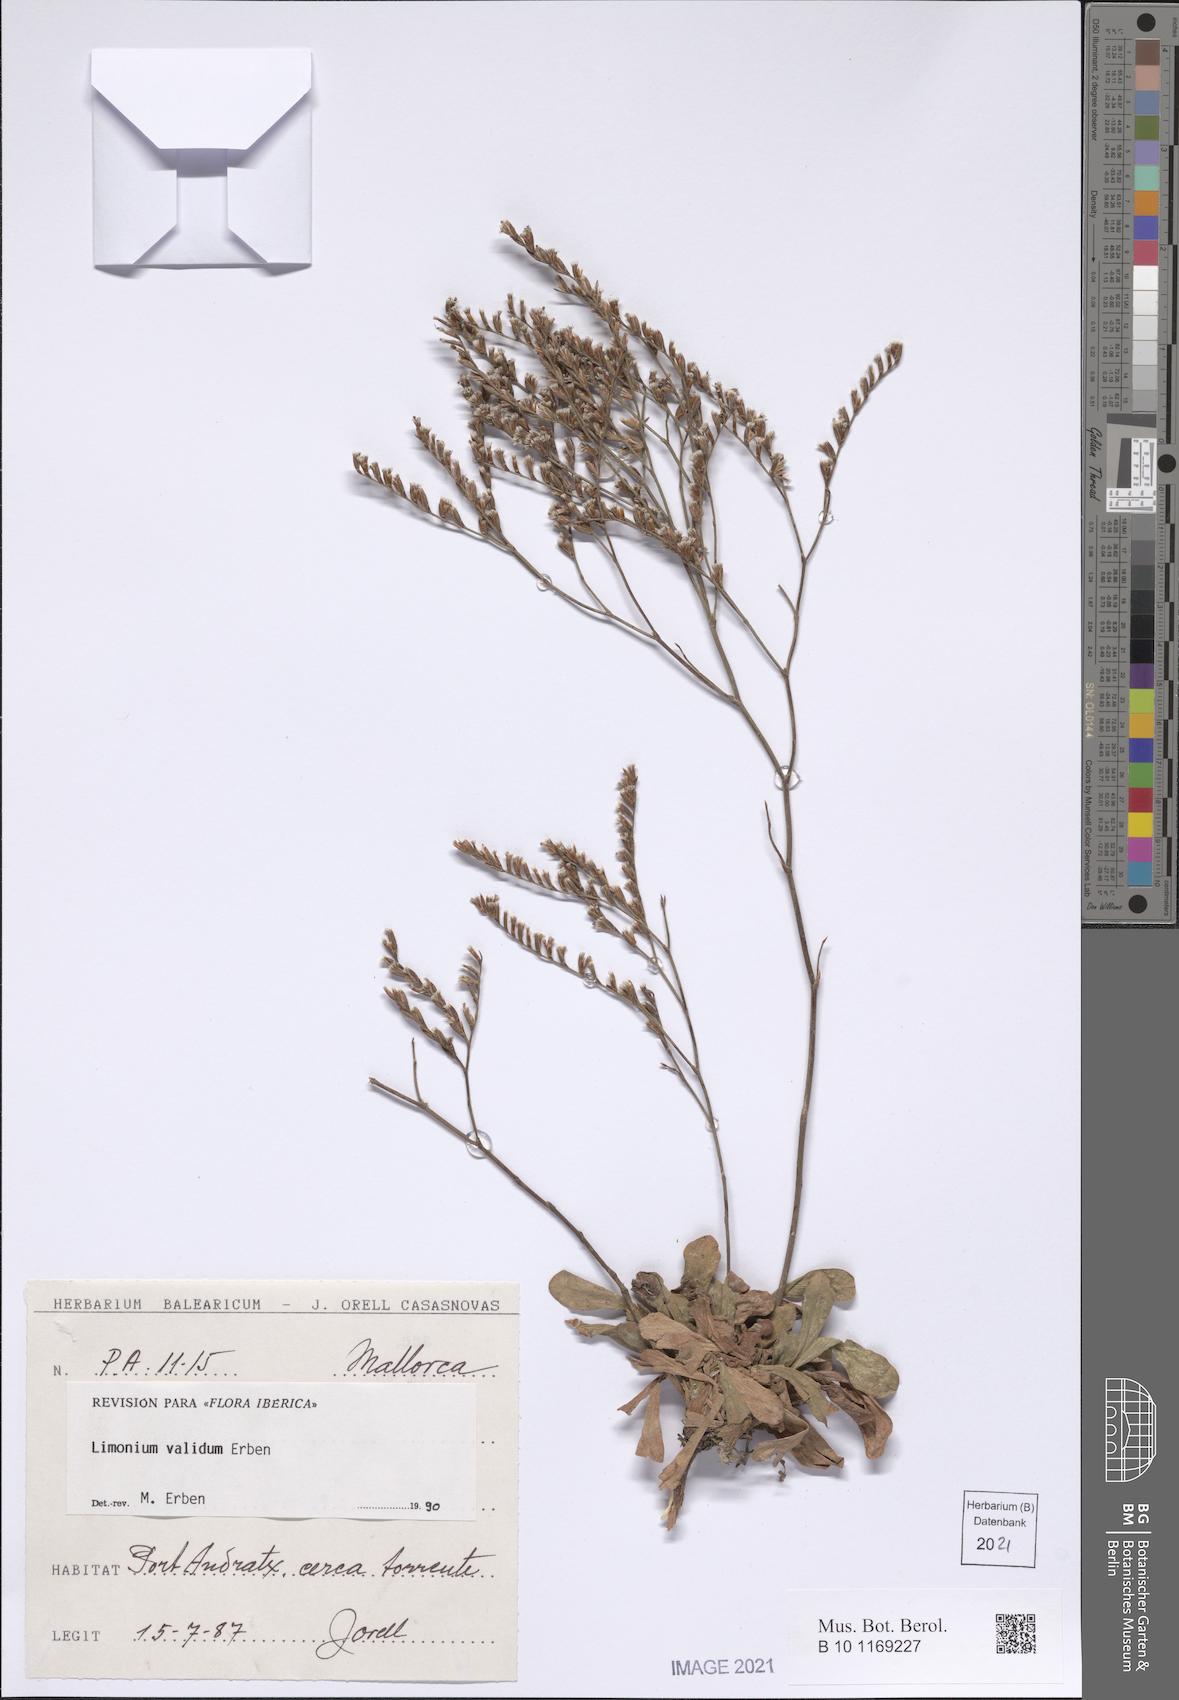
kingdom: Plantae
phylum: Tracheophyta
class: Magnoliopsida
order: Caryophyllales
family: Plumbaginaceae
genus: Limonium
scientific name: Limonium validum
